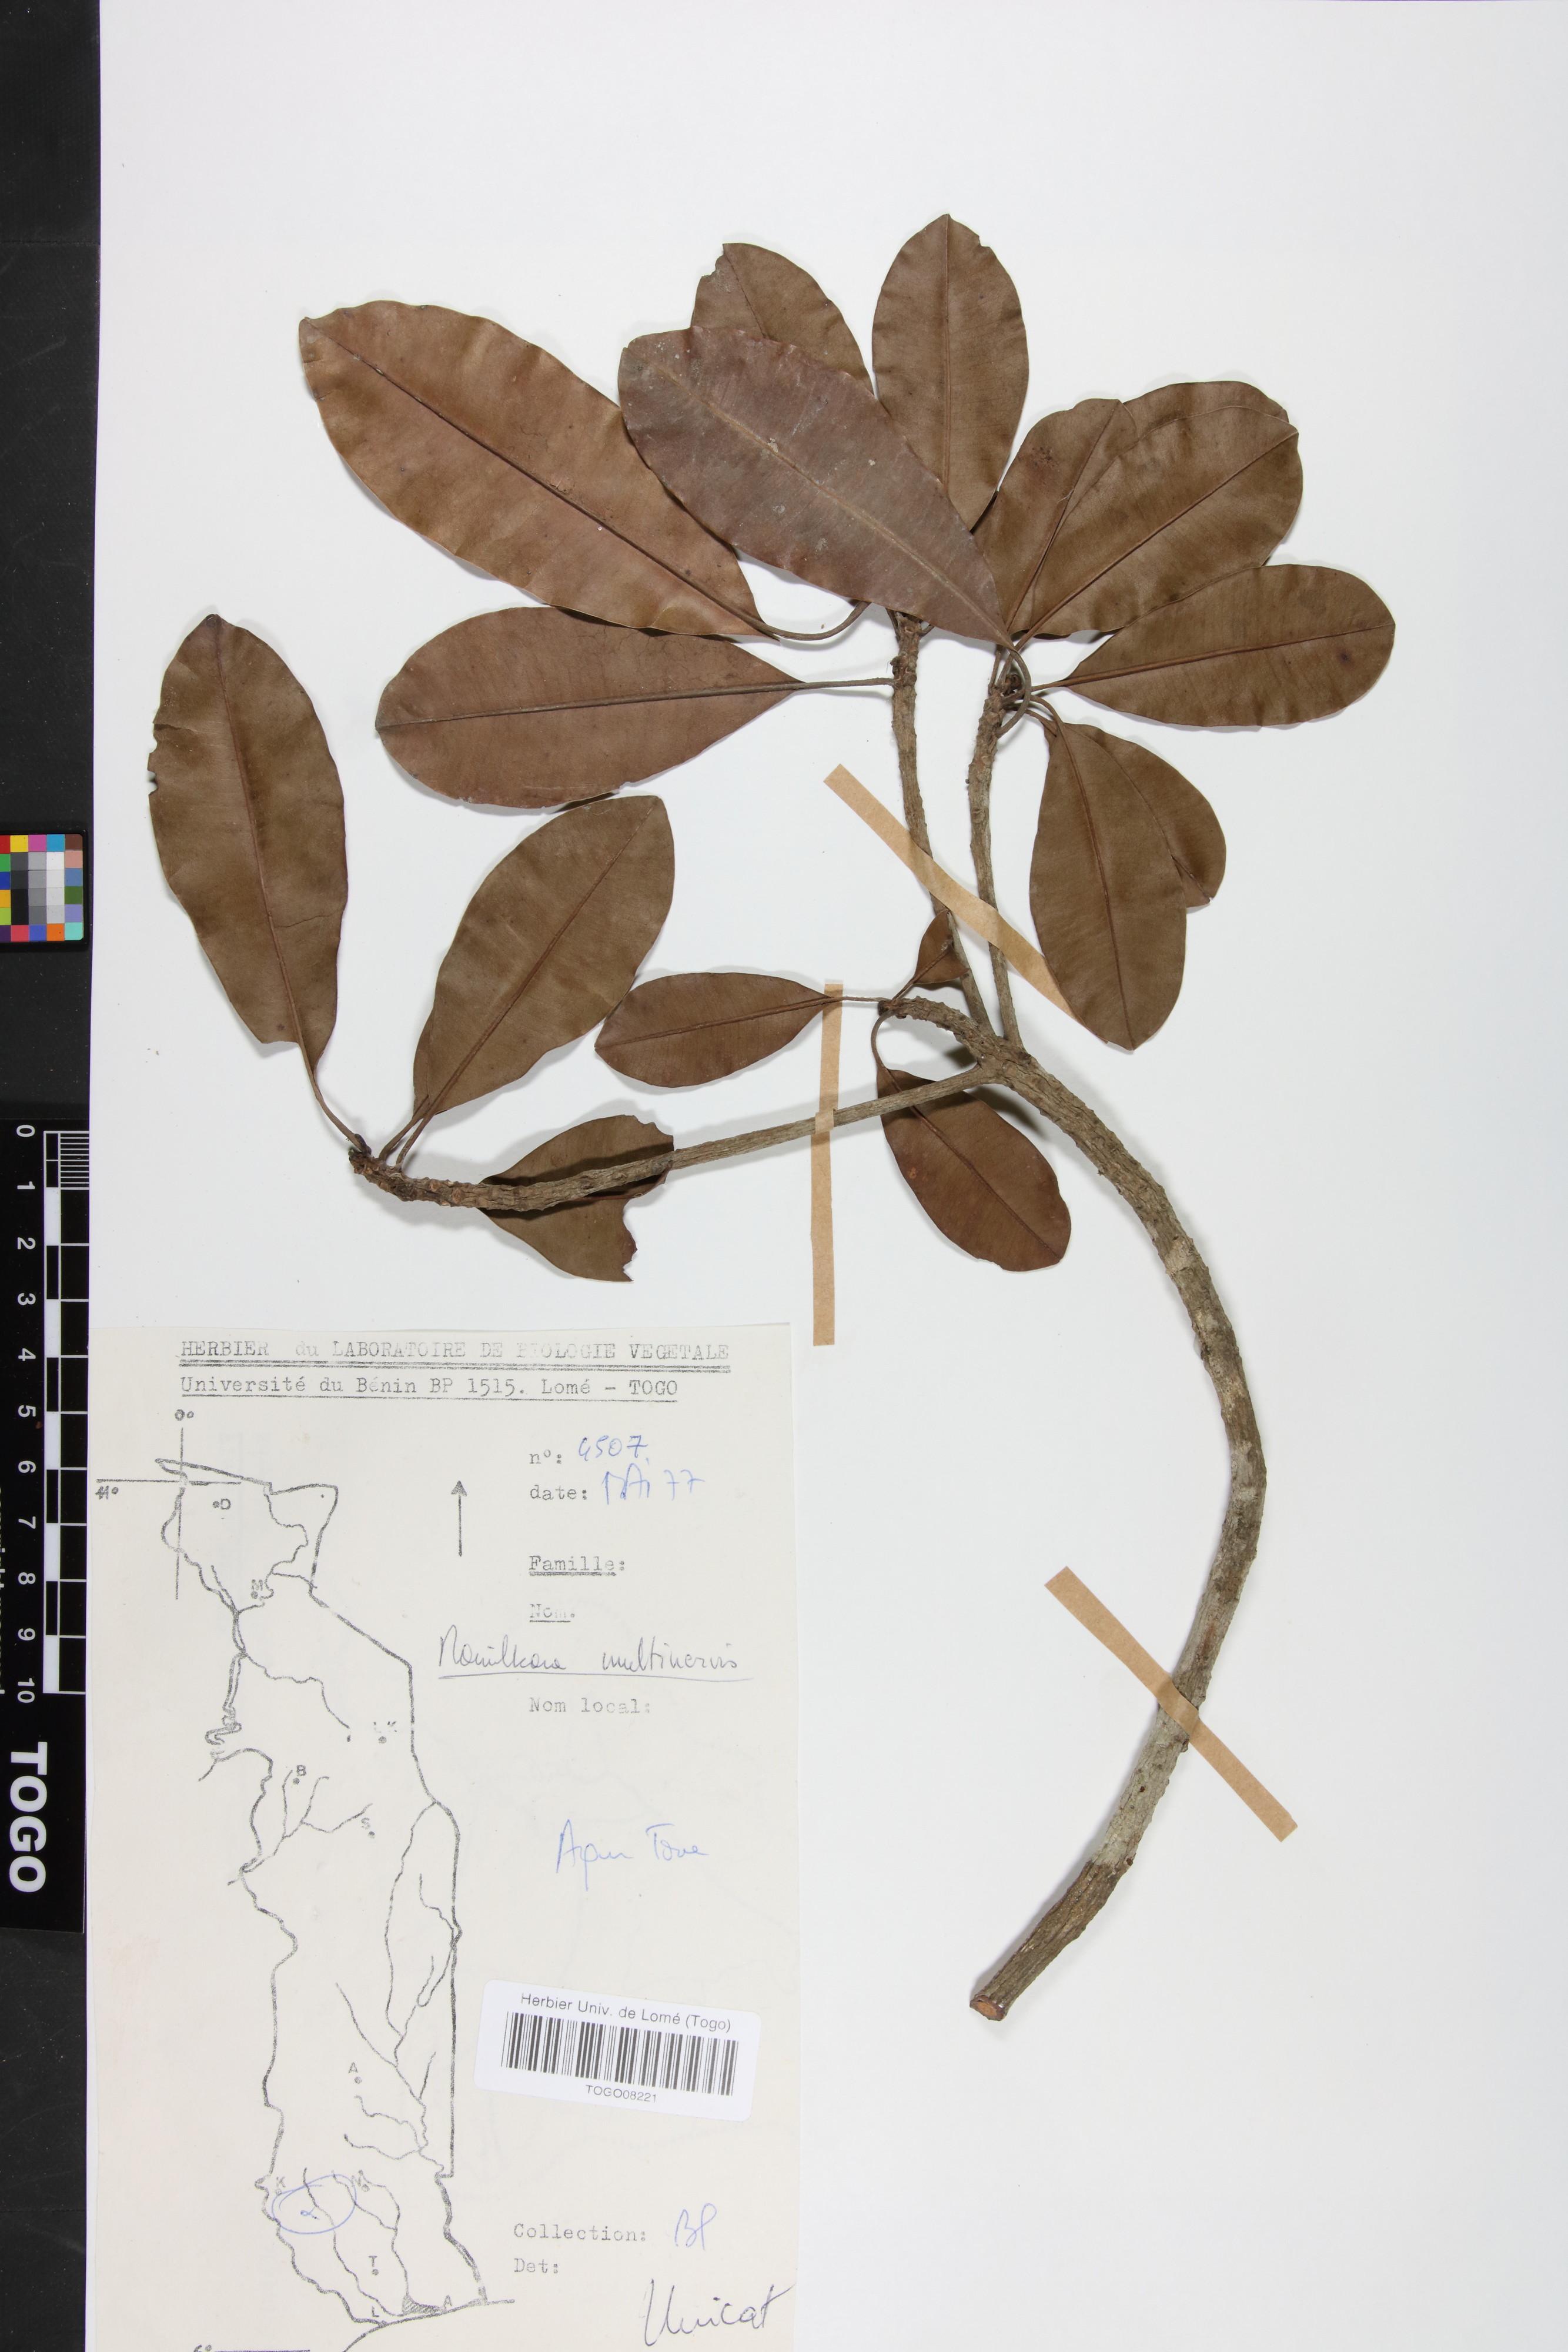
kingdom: Plantae
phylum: Tracheophyta
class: Magnoliopsida
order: Ericales
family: Sapotaceae
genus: Manilkara
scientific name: Manilkara obovata
